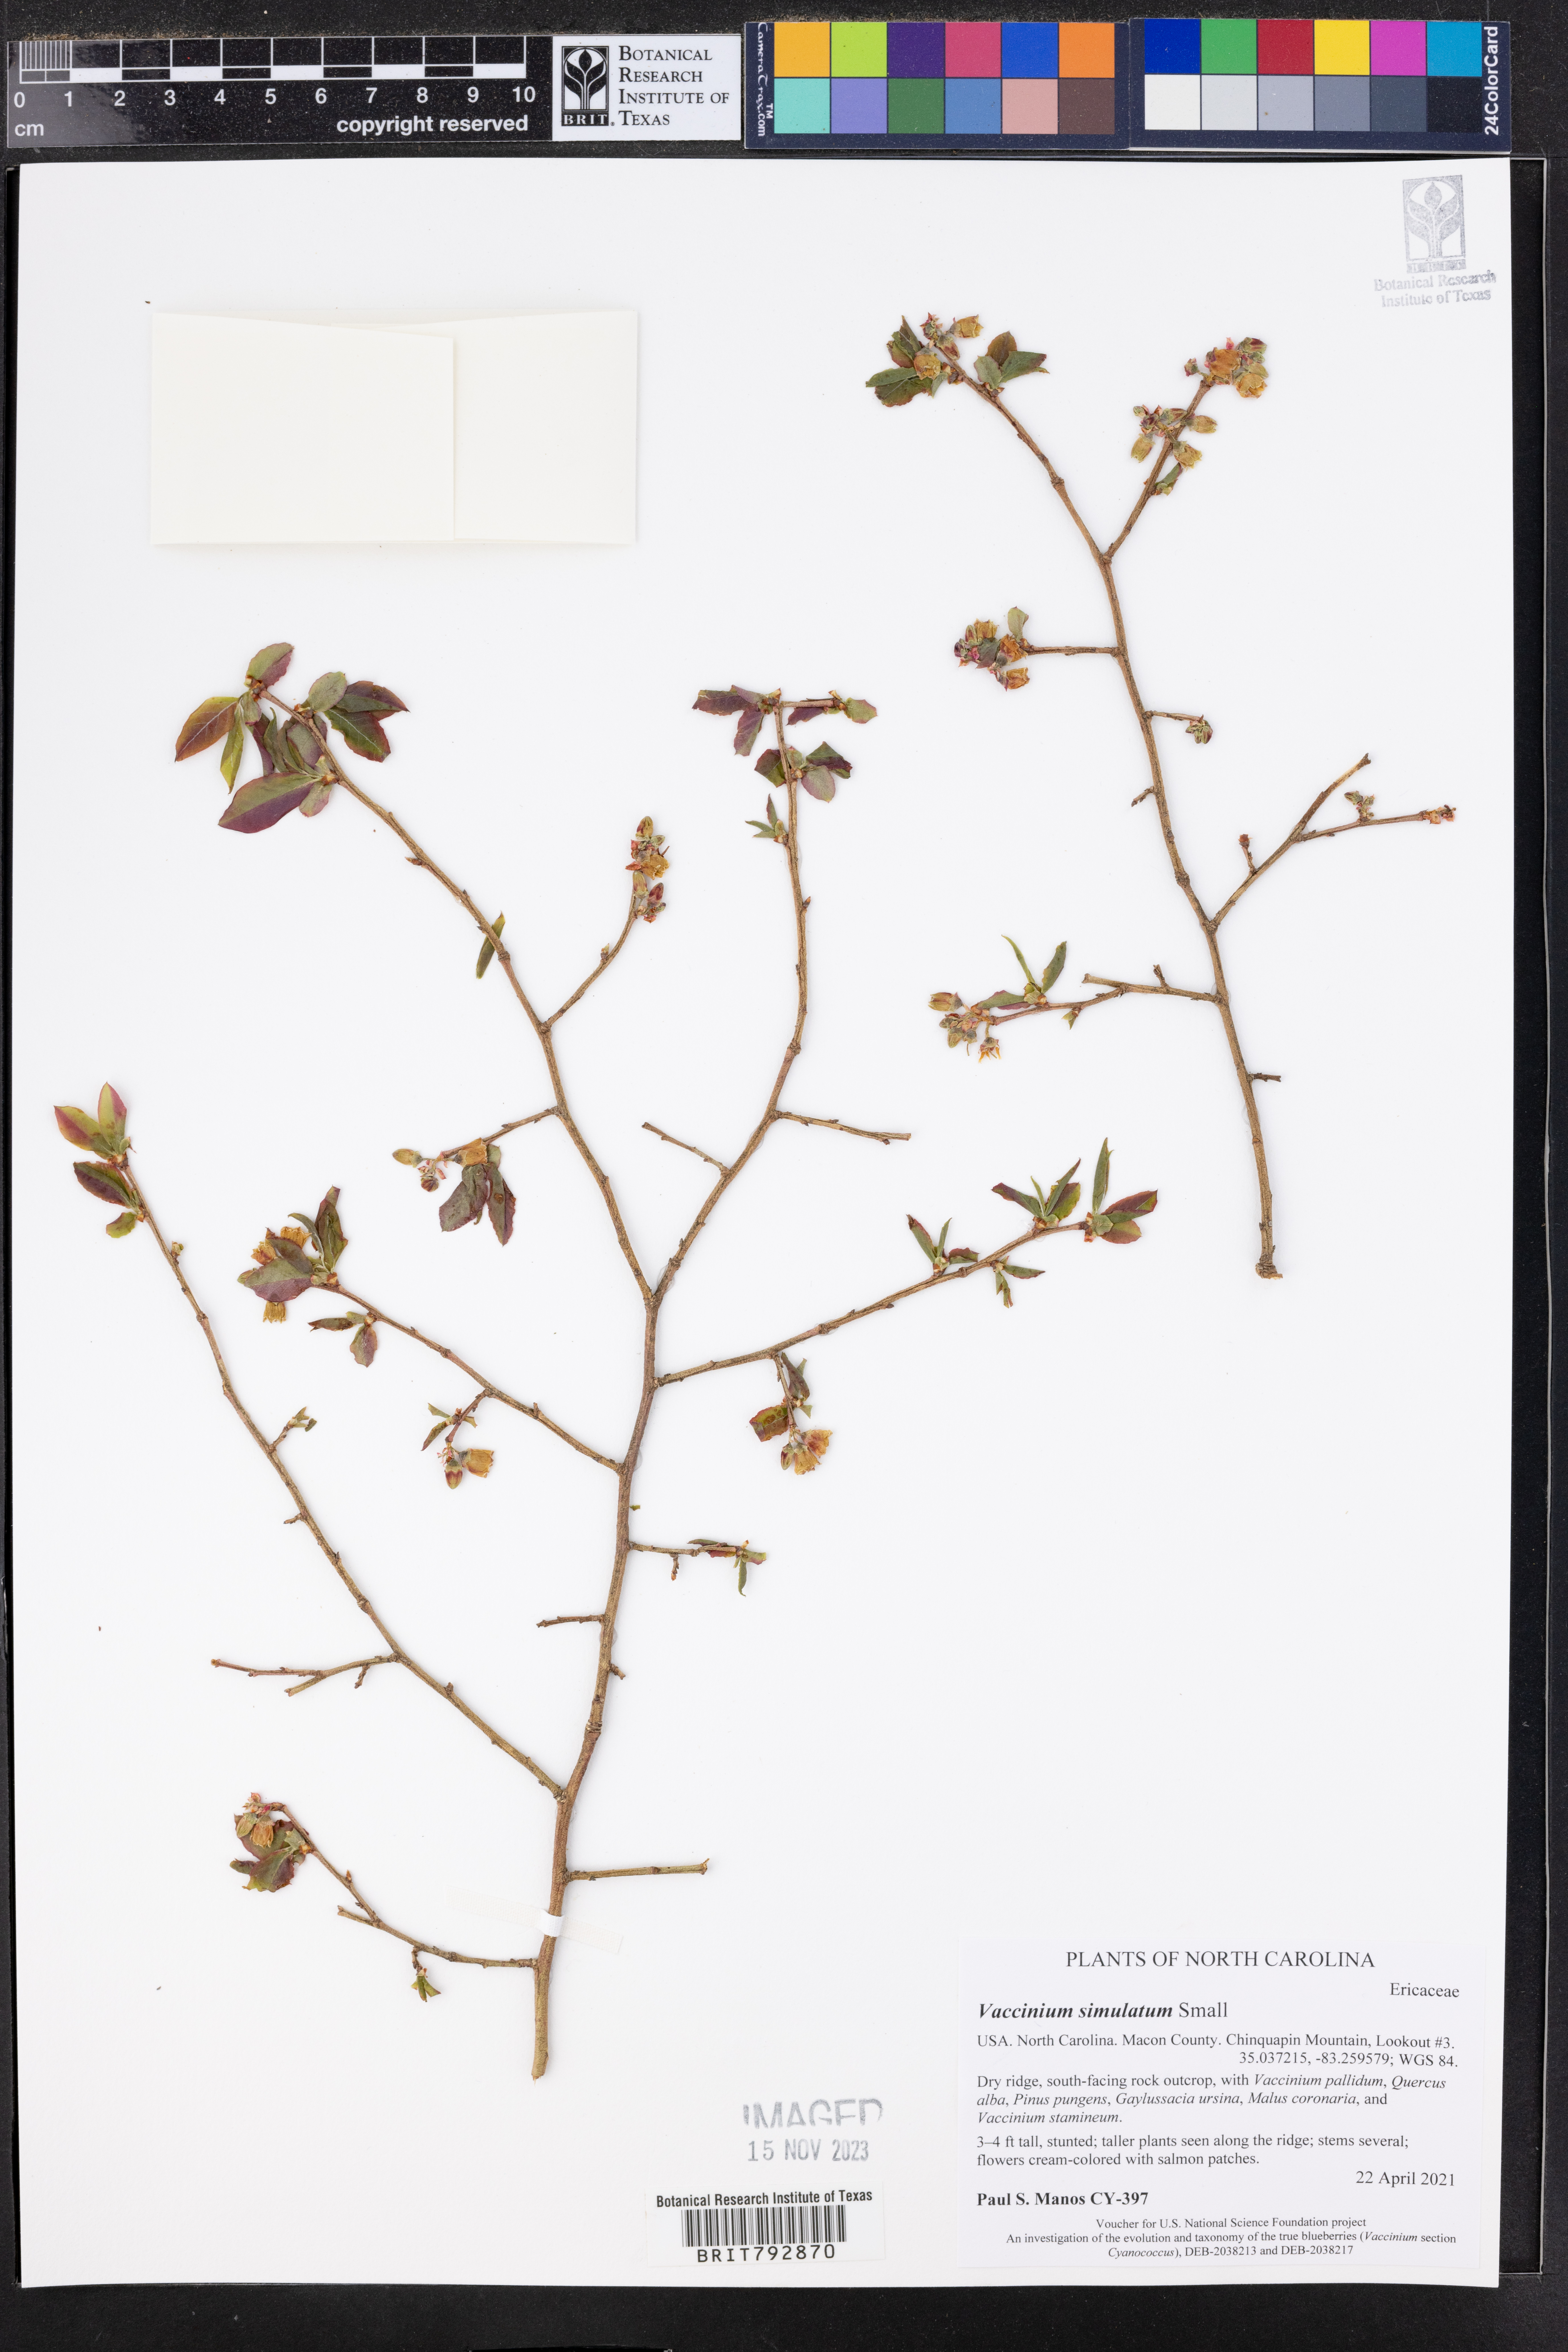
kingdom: Plantae
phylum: Tracheophyta
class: Magnoliopsida
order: Ericales
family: Ericaceae
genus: Vaccinium
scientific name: Vaccinium corymbosum
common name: Blueberry
